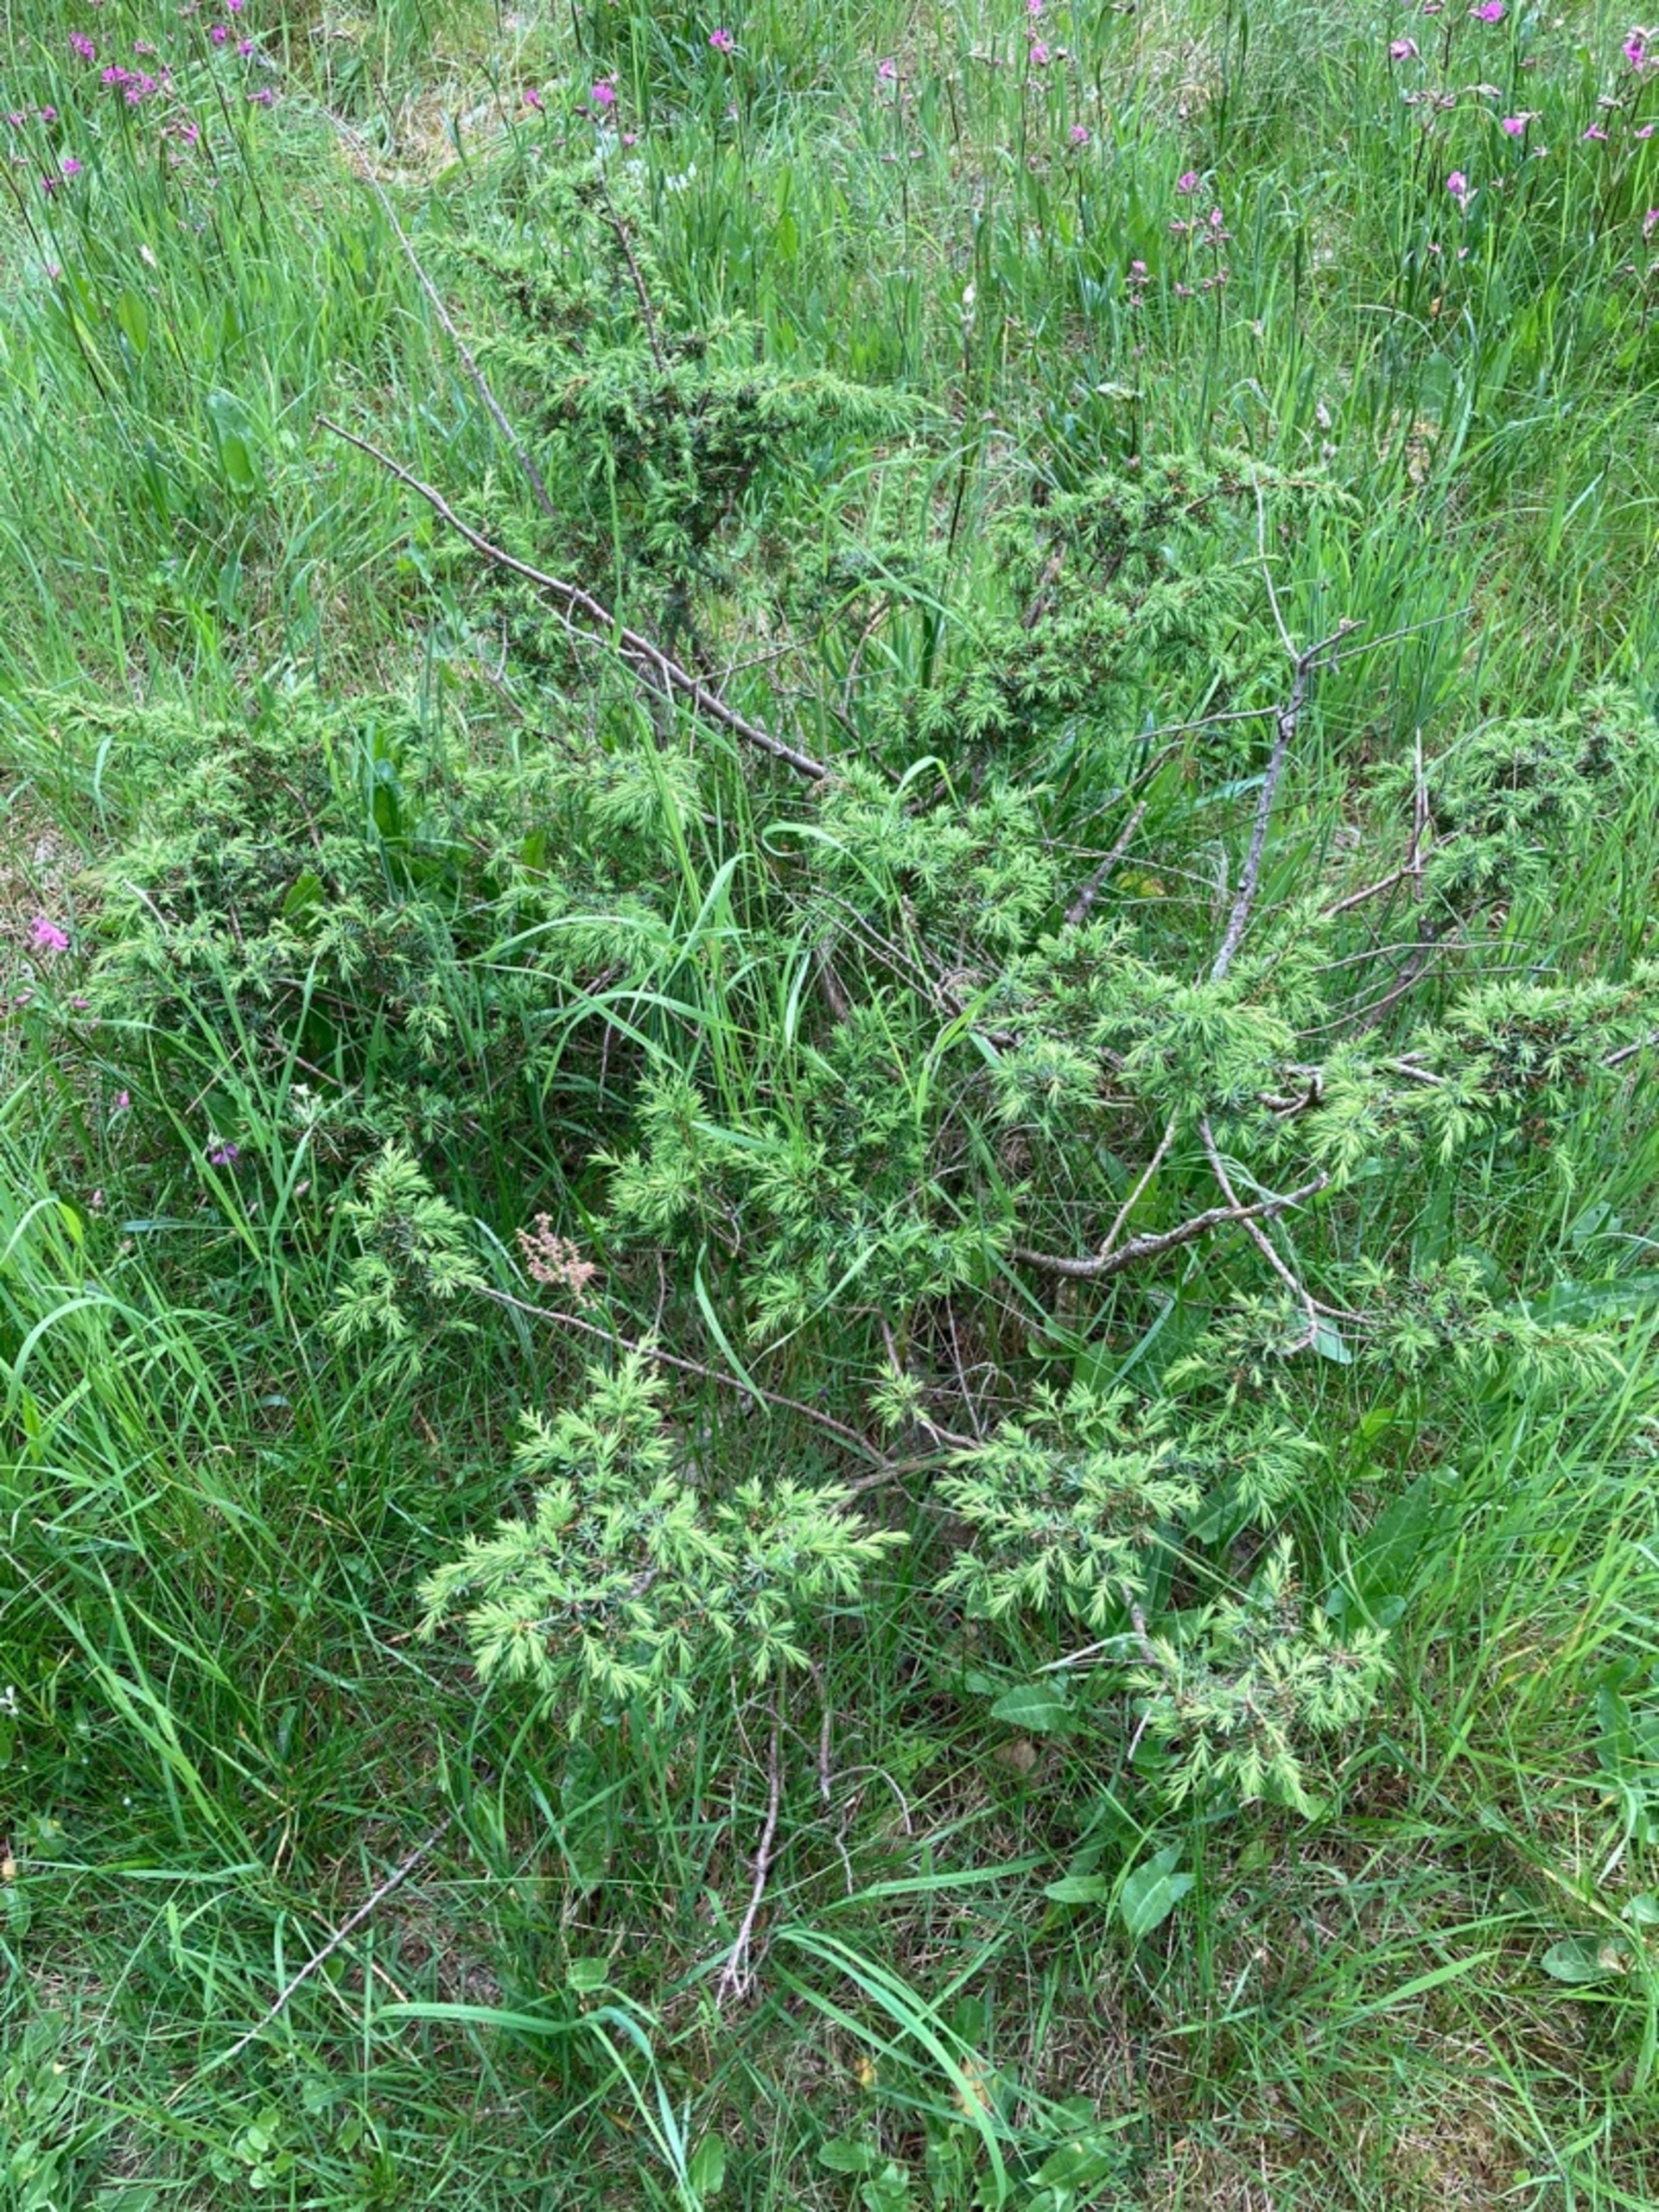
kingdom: Plantae
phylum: Tracheophyta
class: Pinopsida
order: Pinales
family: Cupressaceae
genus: Juniperus
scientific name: Juniperus communis
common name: Almindelig ene
